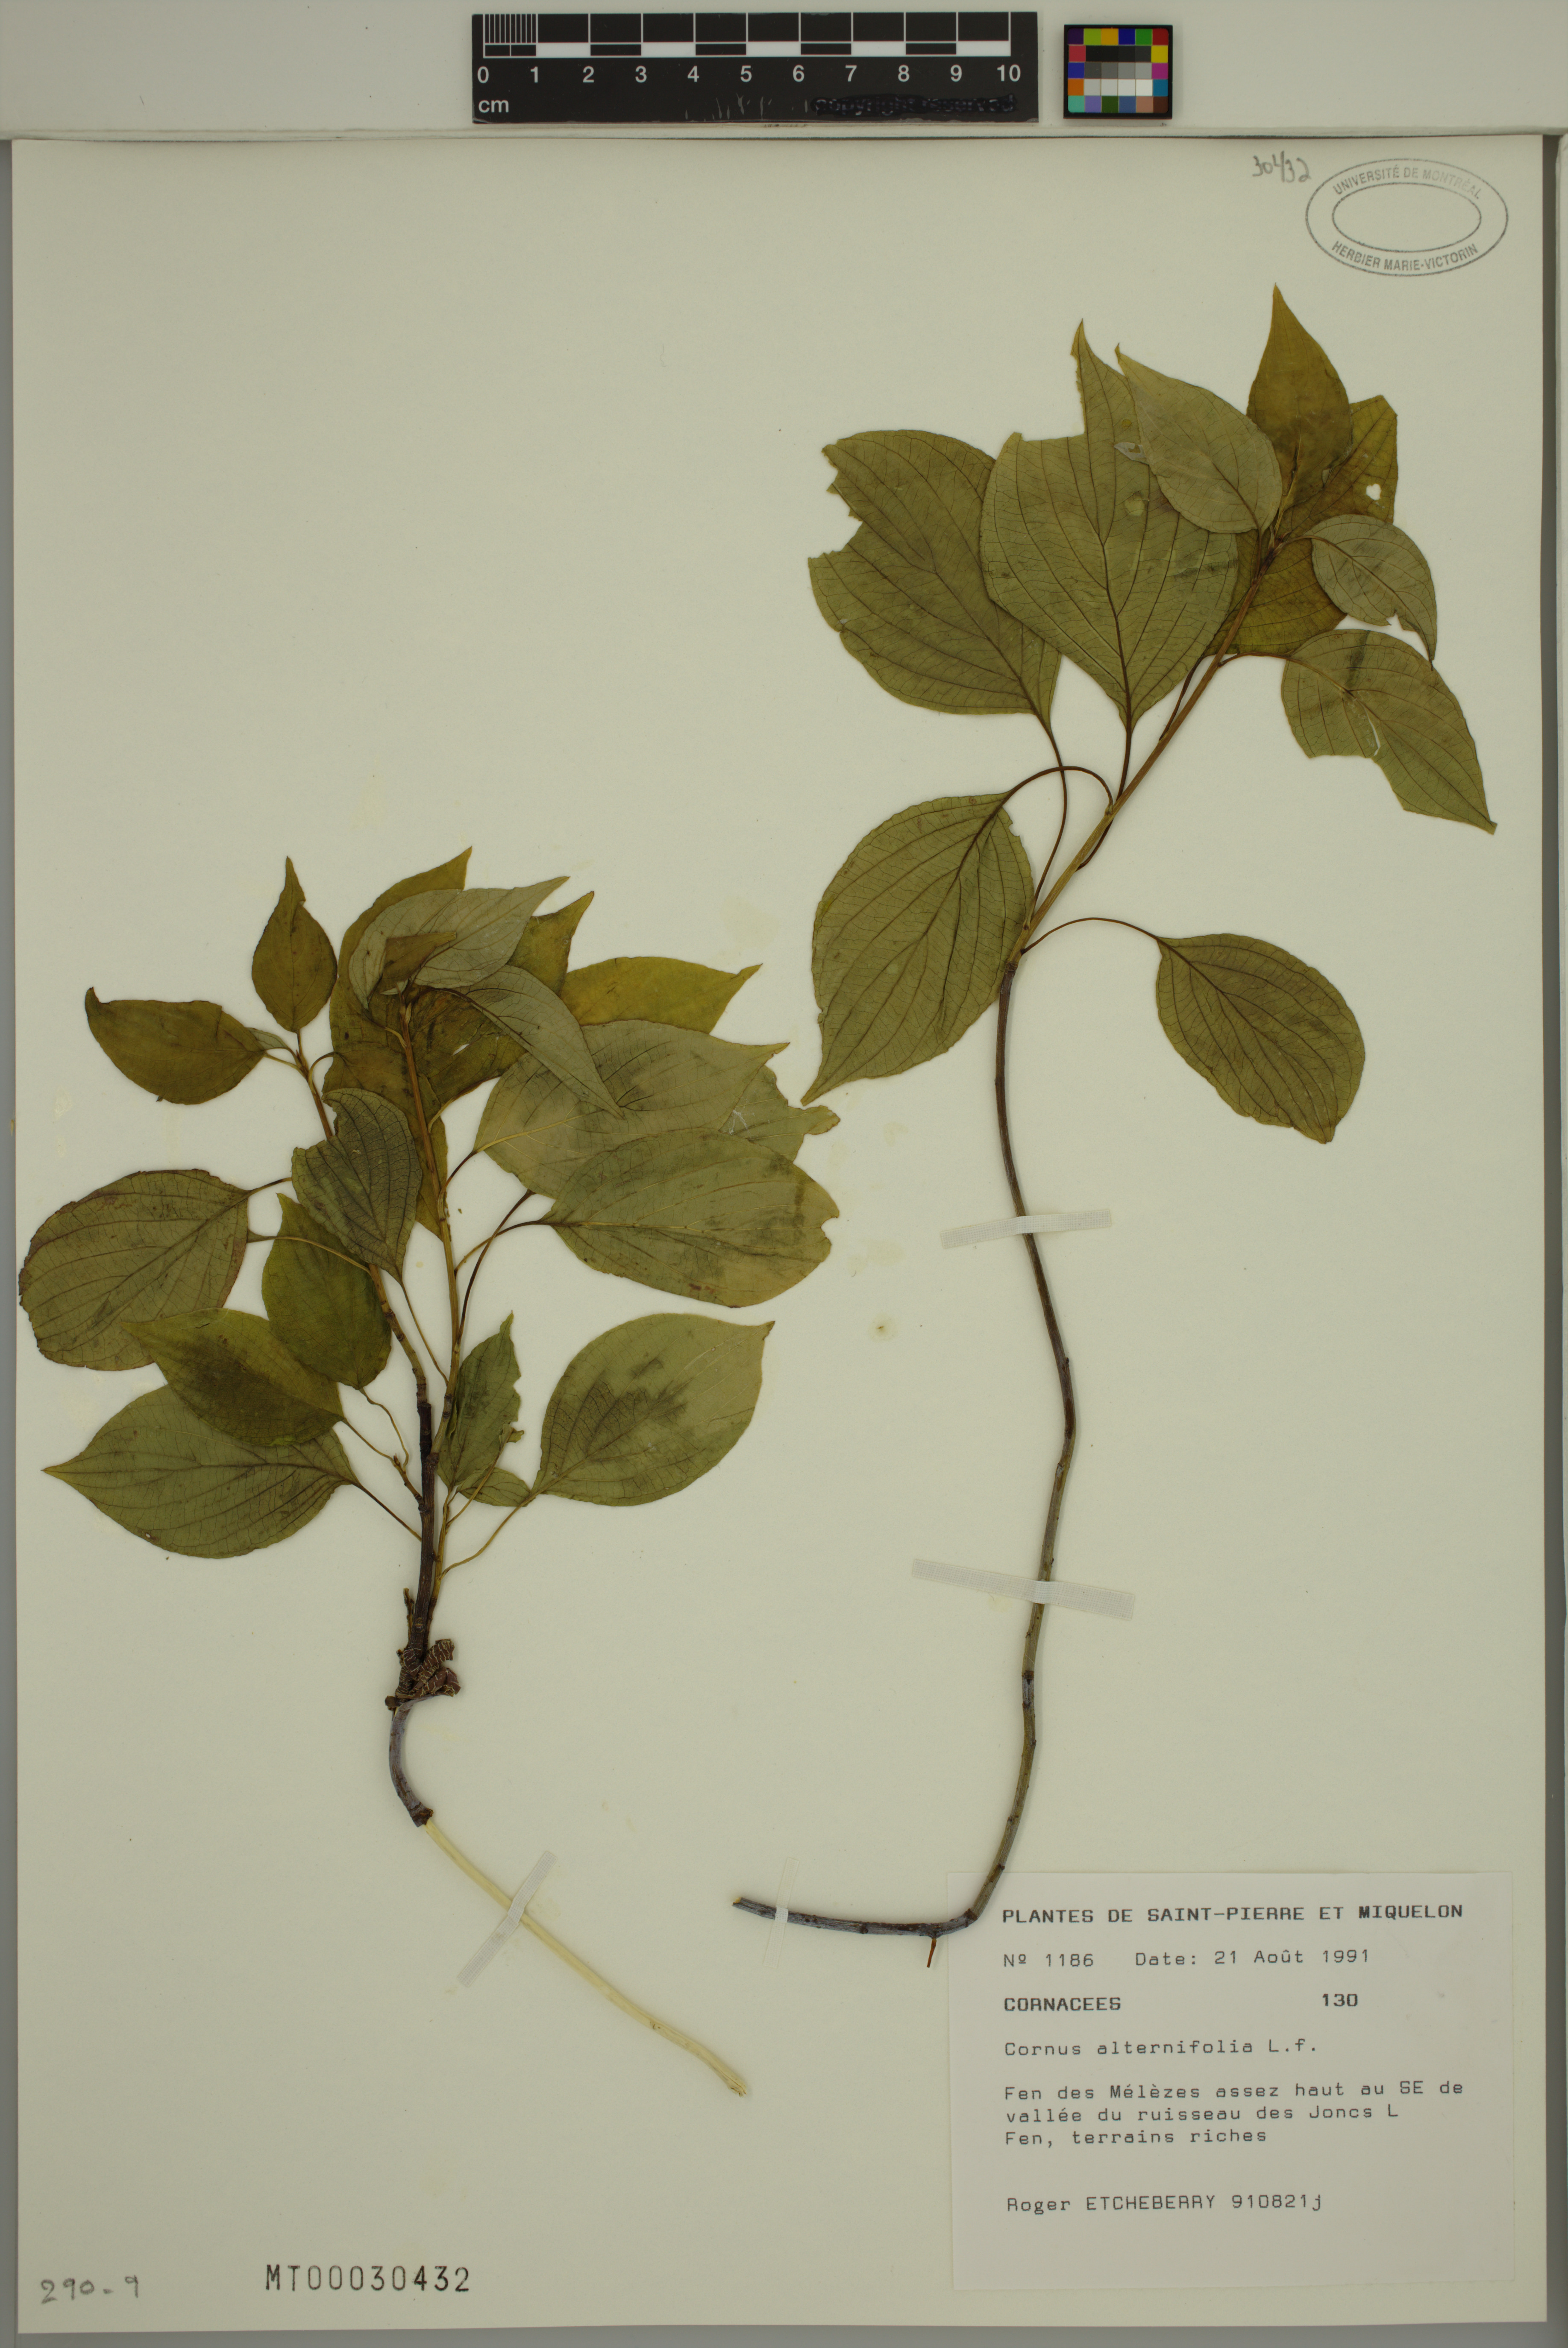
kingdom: Plantae
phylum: Tracheophyta
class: Magnoliopsida
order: Cornales
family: Cornaceae
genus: Cornus
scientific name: Cornus alternifolia
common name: Pagoda dogwood
